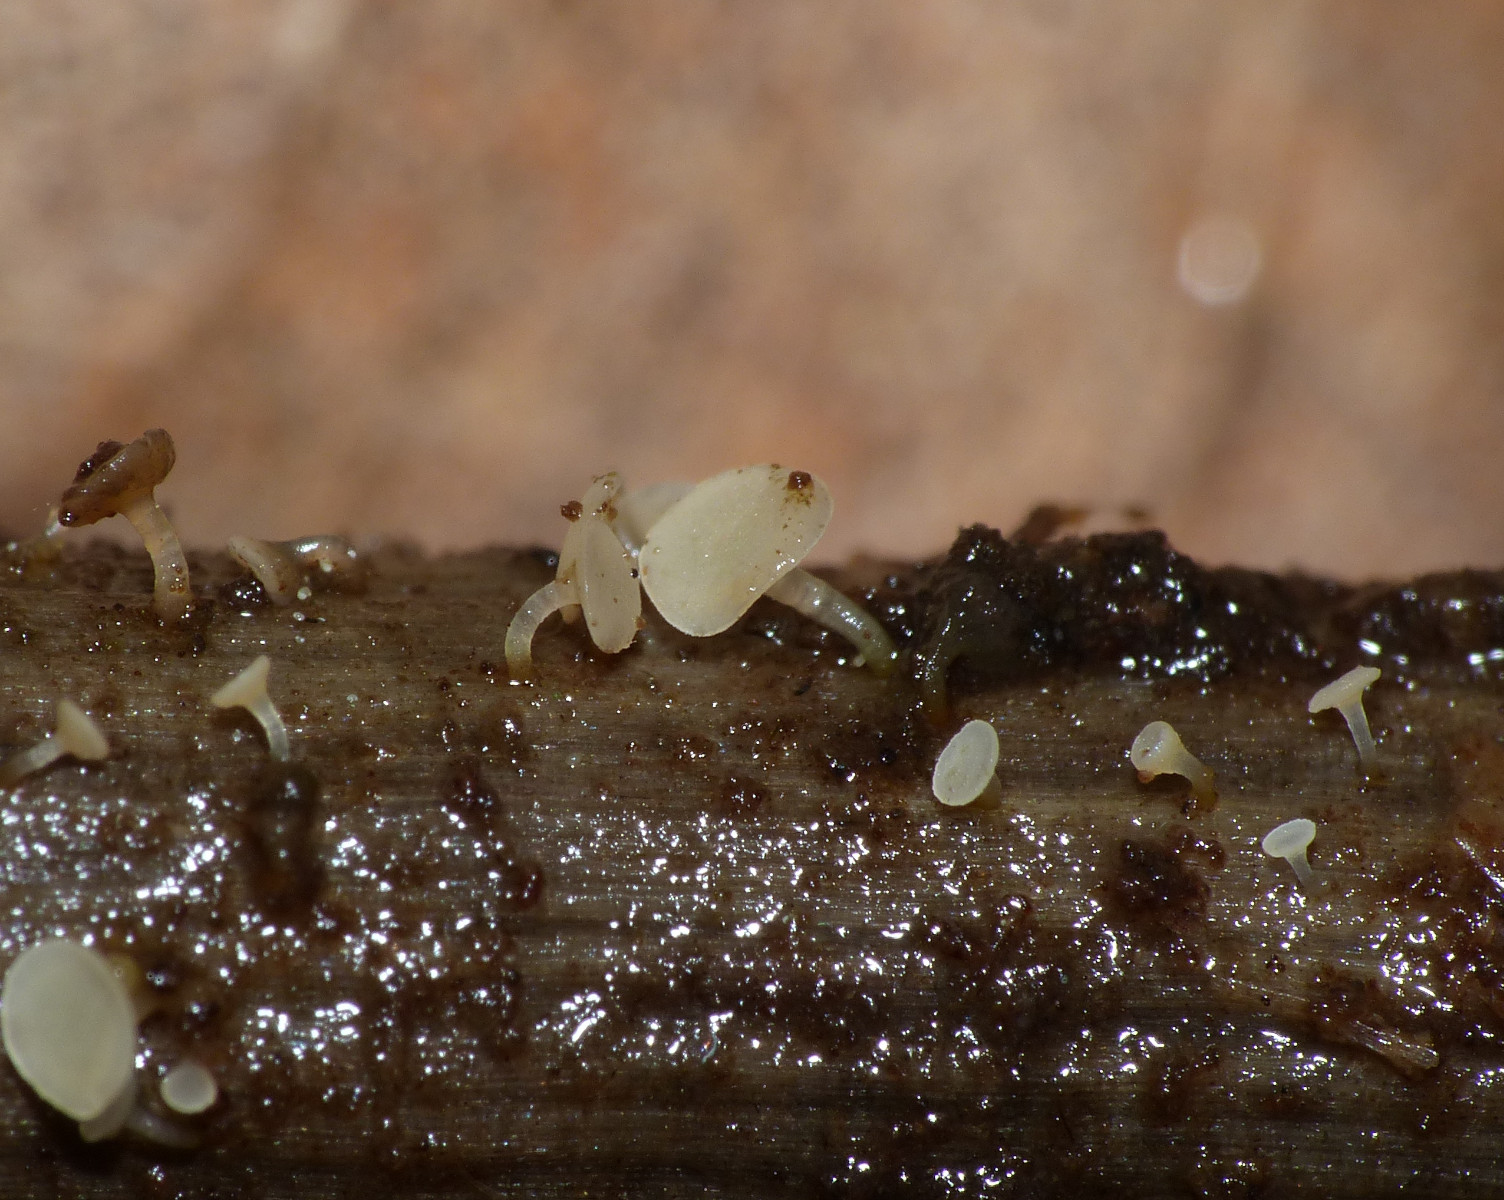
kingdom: Fungi
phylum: Ascomycota
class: Leotiomycetes
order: Helotiales
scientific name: Helotiales
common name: stilkskiveordenen
